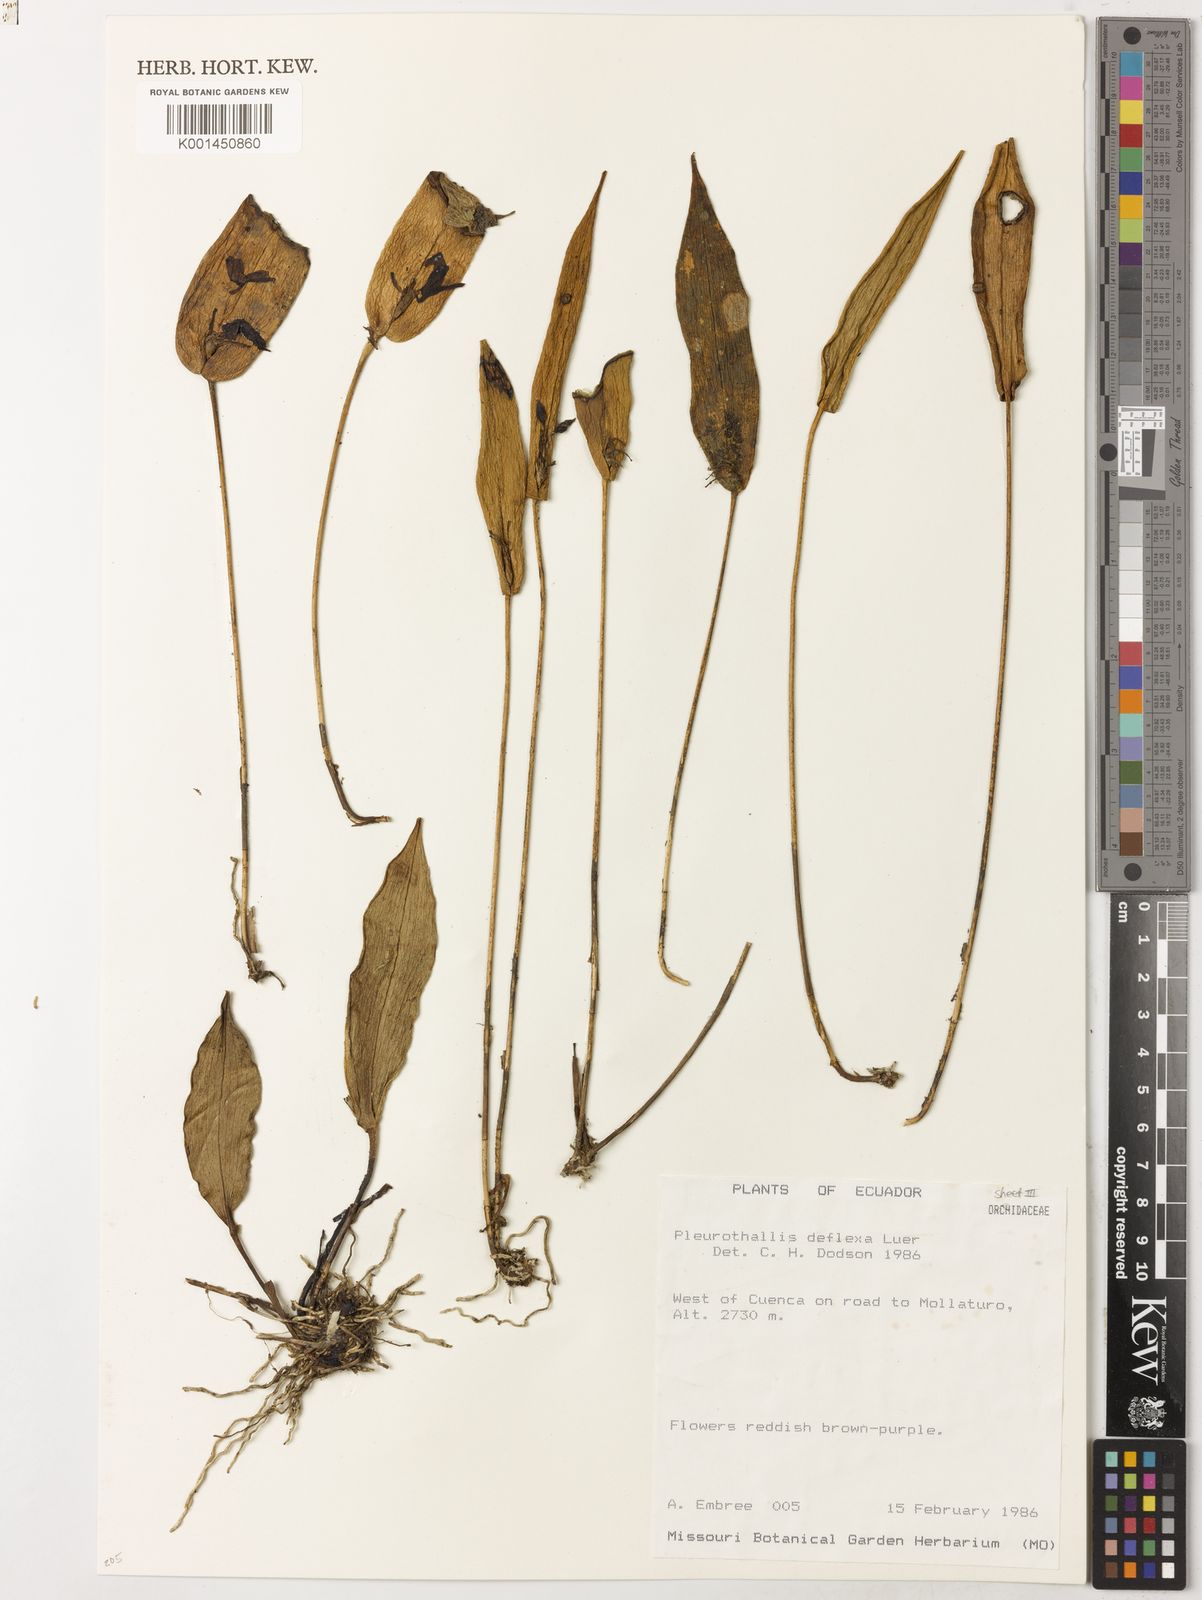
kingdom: Plantae
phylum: Tracheophyta
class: Liliopsida
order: Asparagales
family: Orchidaceae
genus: Pleurothallis
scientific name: Pleurothallis deflexa
